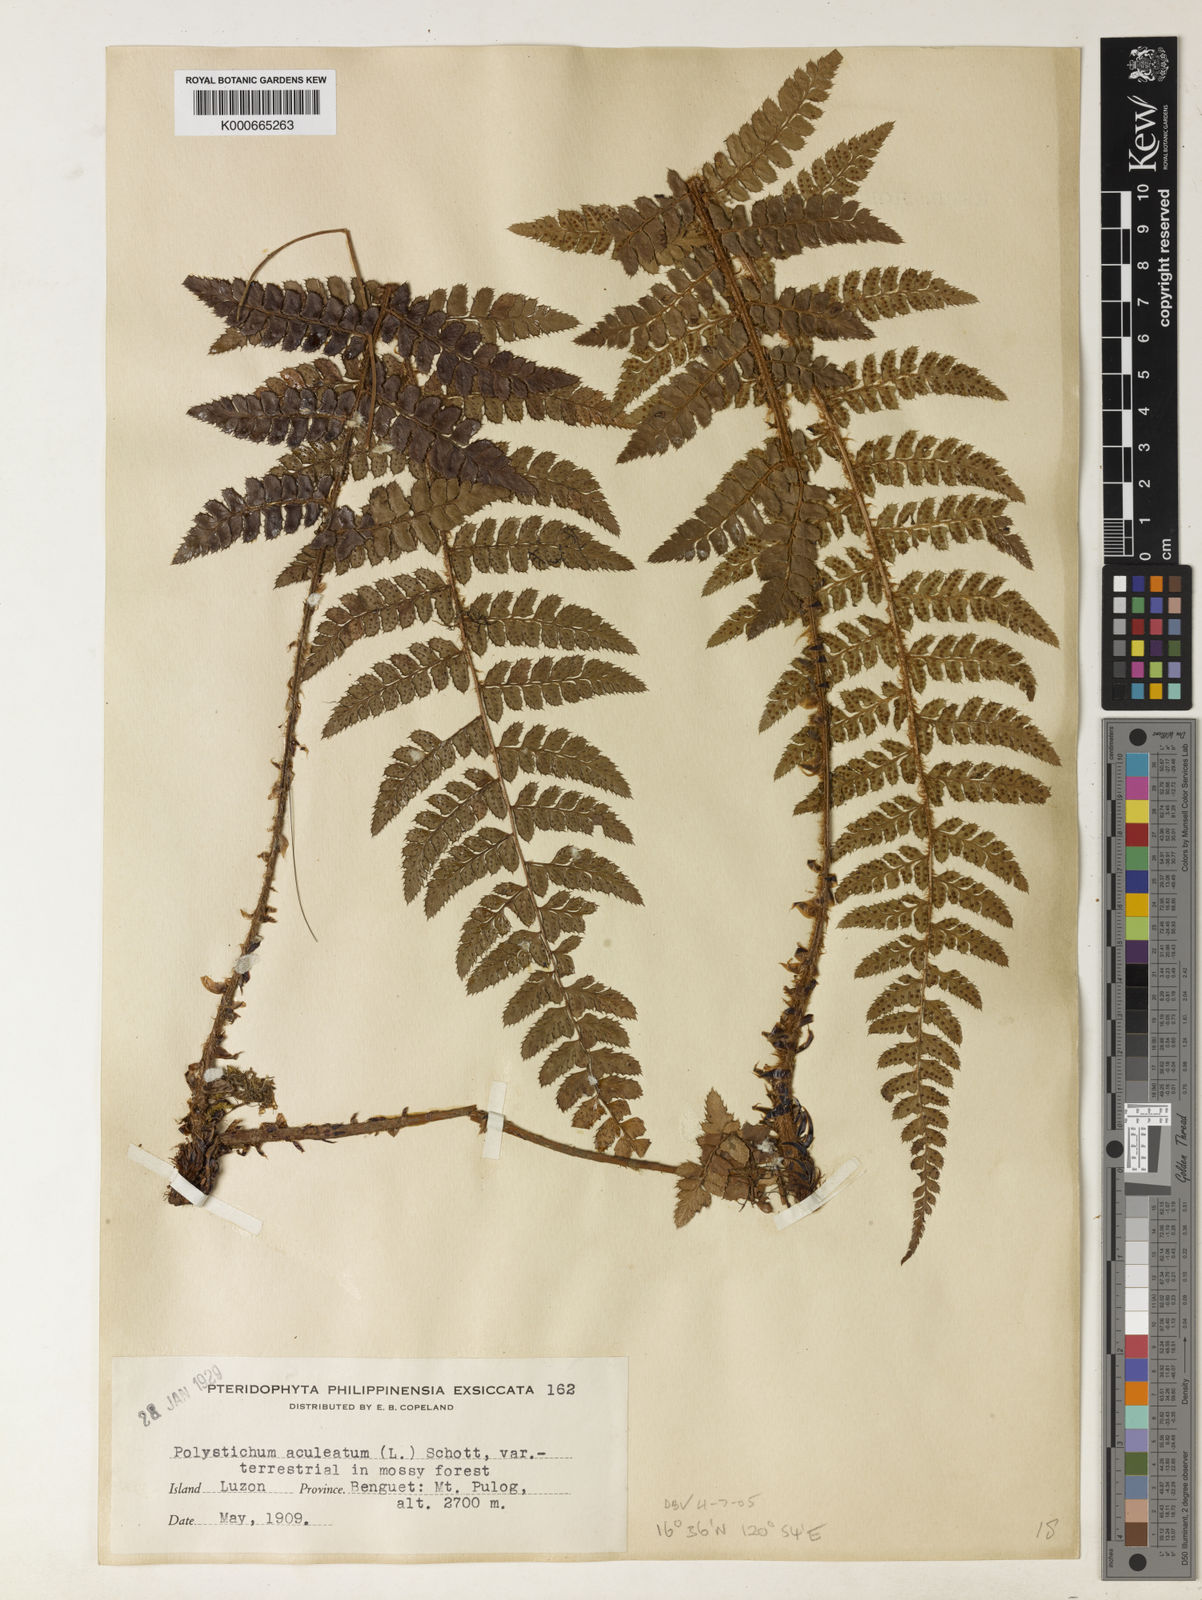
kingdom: Plantae
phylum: Tracheophyta
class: Polypodiopsida
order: Polypodiales
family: Dryopteridaceae
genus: Polystichum
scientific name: Polystichum piceopaleaceum
